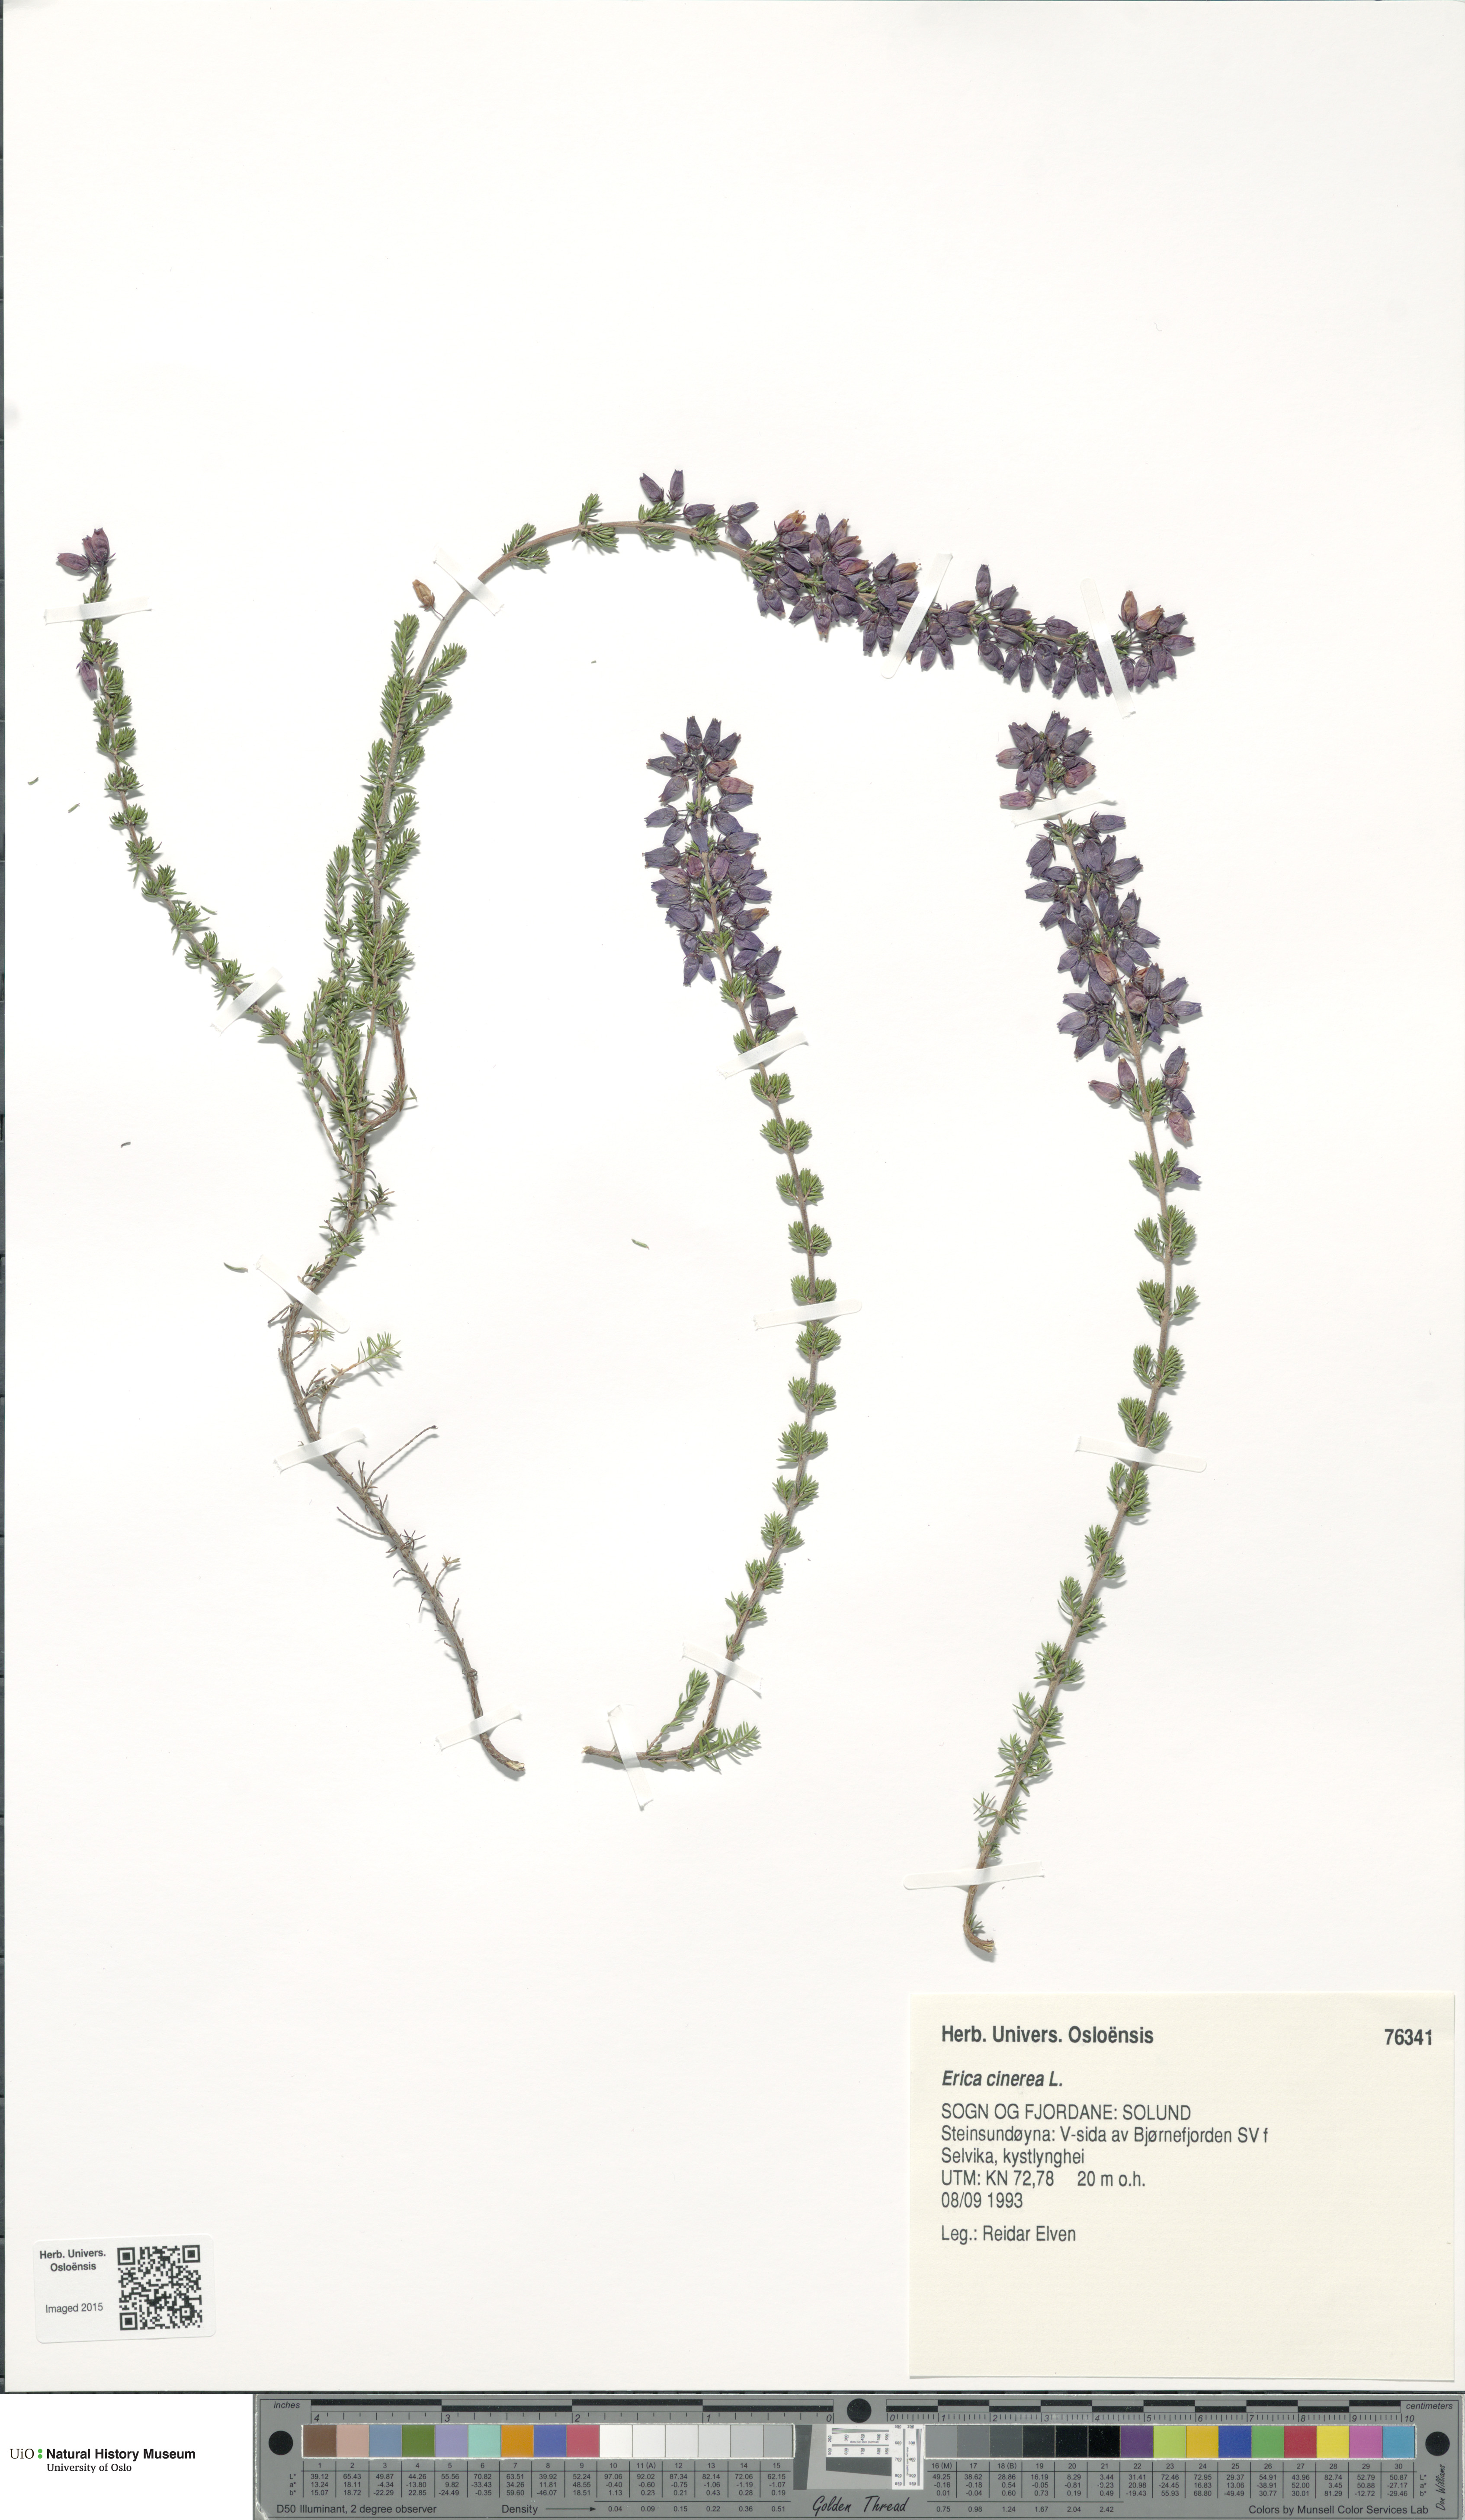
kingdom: Plantae
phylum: Tracheophyta
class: Magnoliopsida
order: Ericales
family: Ericaceae
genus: Erica
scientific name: Erica cinerea
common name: Bell heather
